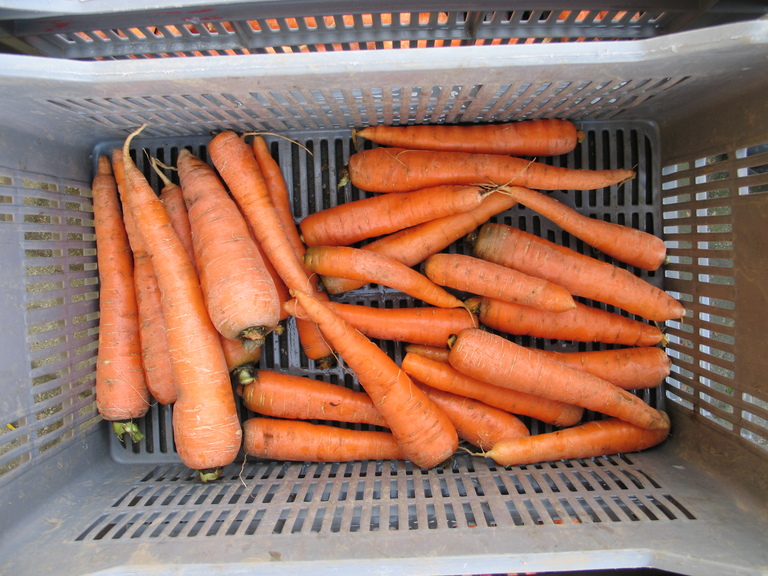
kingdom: Plantae
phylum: Tracheophyta
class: Magnoliopsida
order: Apiales
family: Apiaceae
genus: Daucus
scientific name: Daucus carota
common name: Wild carrot
